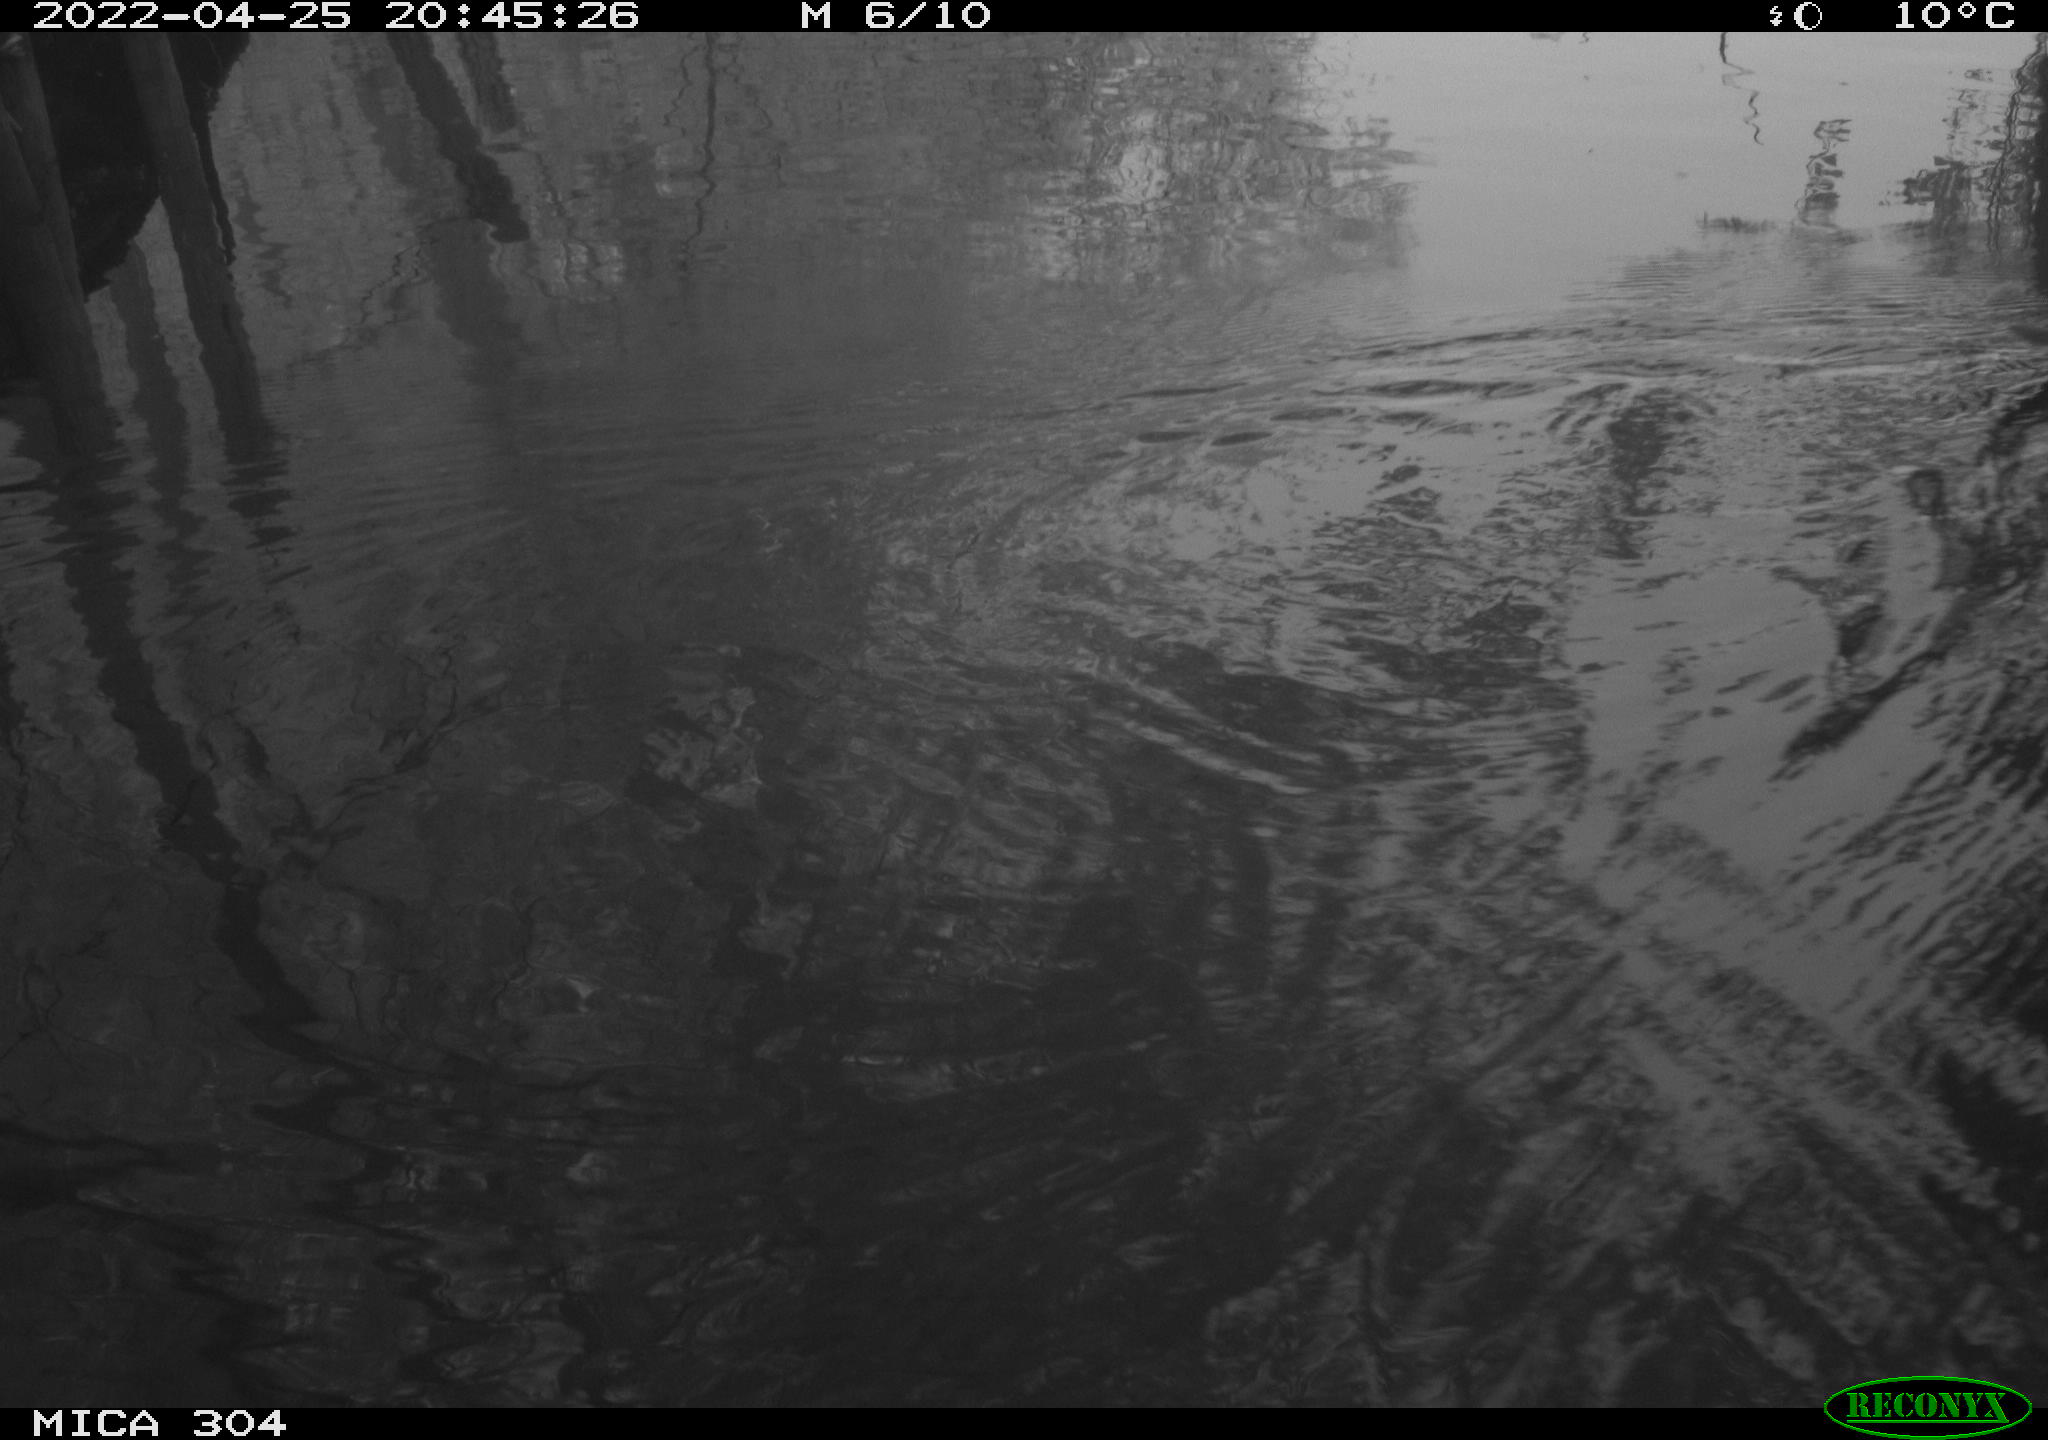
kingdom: Animalia
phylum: Chordata
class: Aves
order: Gruiformes
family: Rallidae
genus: Gallinula
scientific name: Gallinula chloropus
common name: Common moorhen
